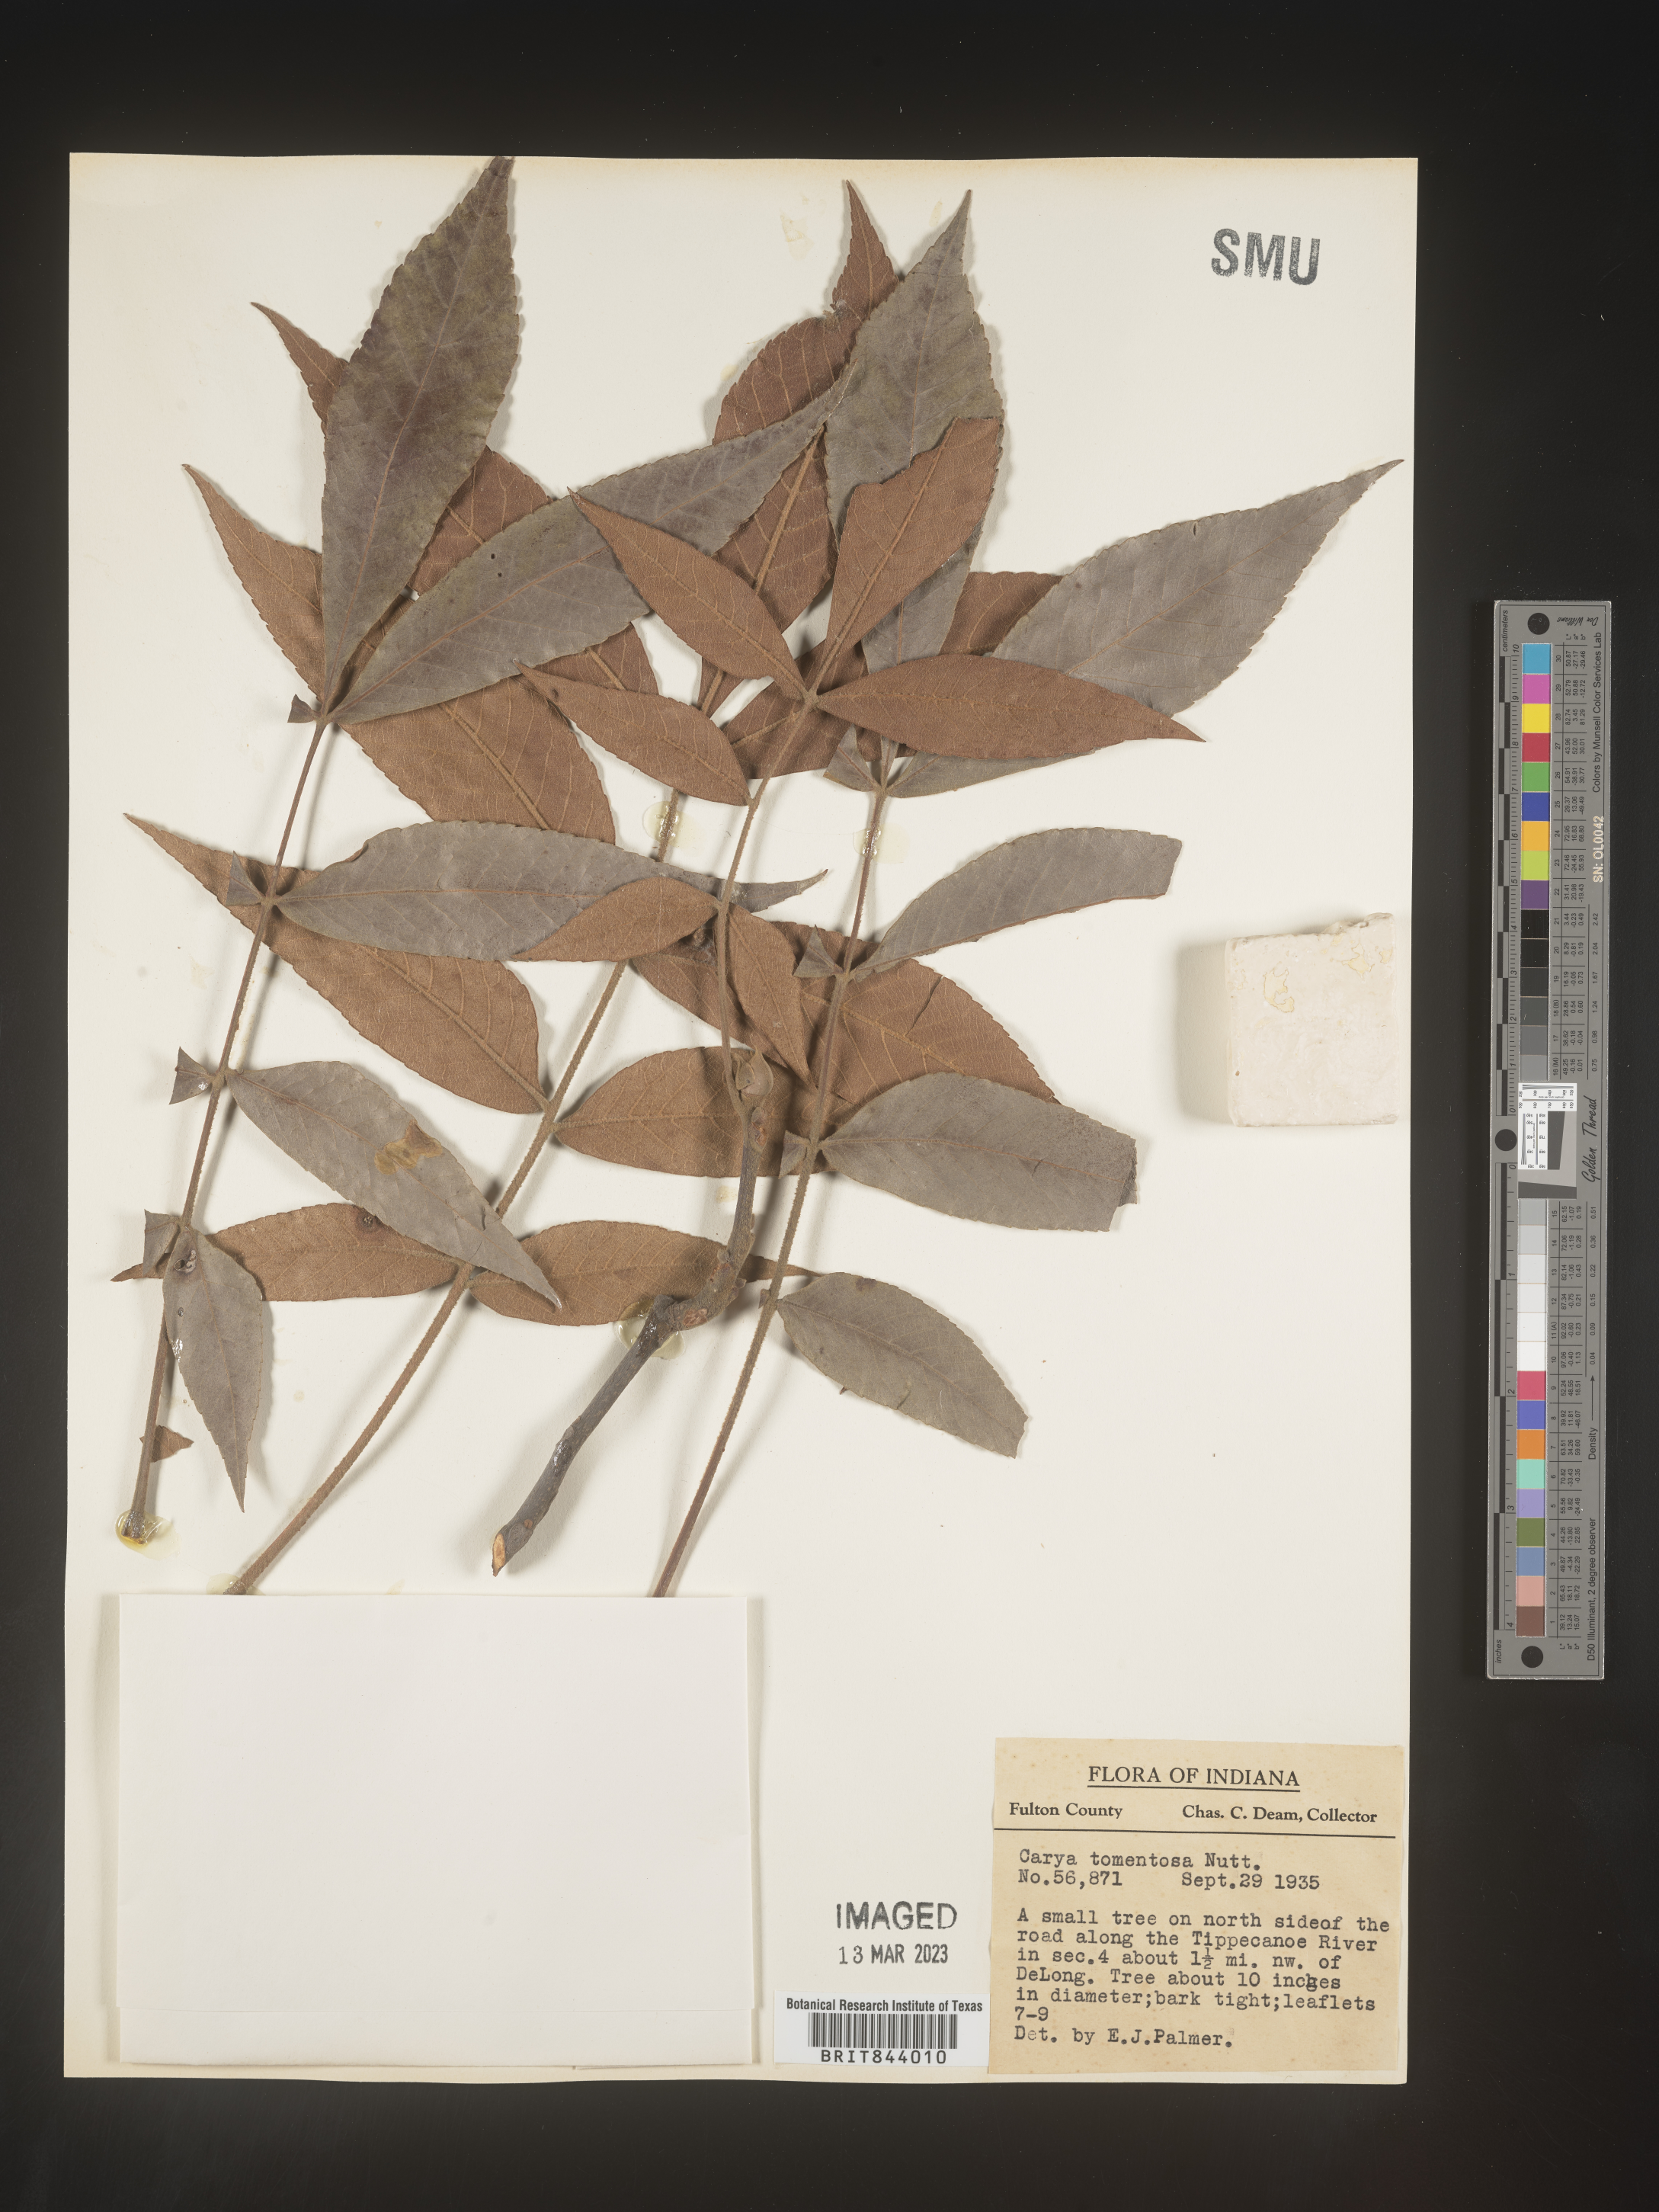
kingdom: Plantae
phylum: Tracheophyta
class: Magnoliopsida
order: Fagales
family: Juglandaceae
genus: Carya
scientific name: Carya alba
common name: Mockernut hickory
